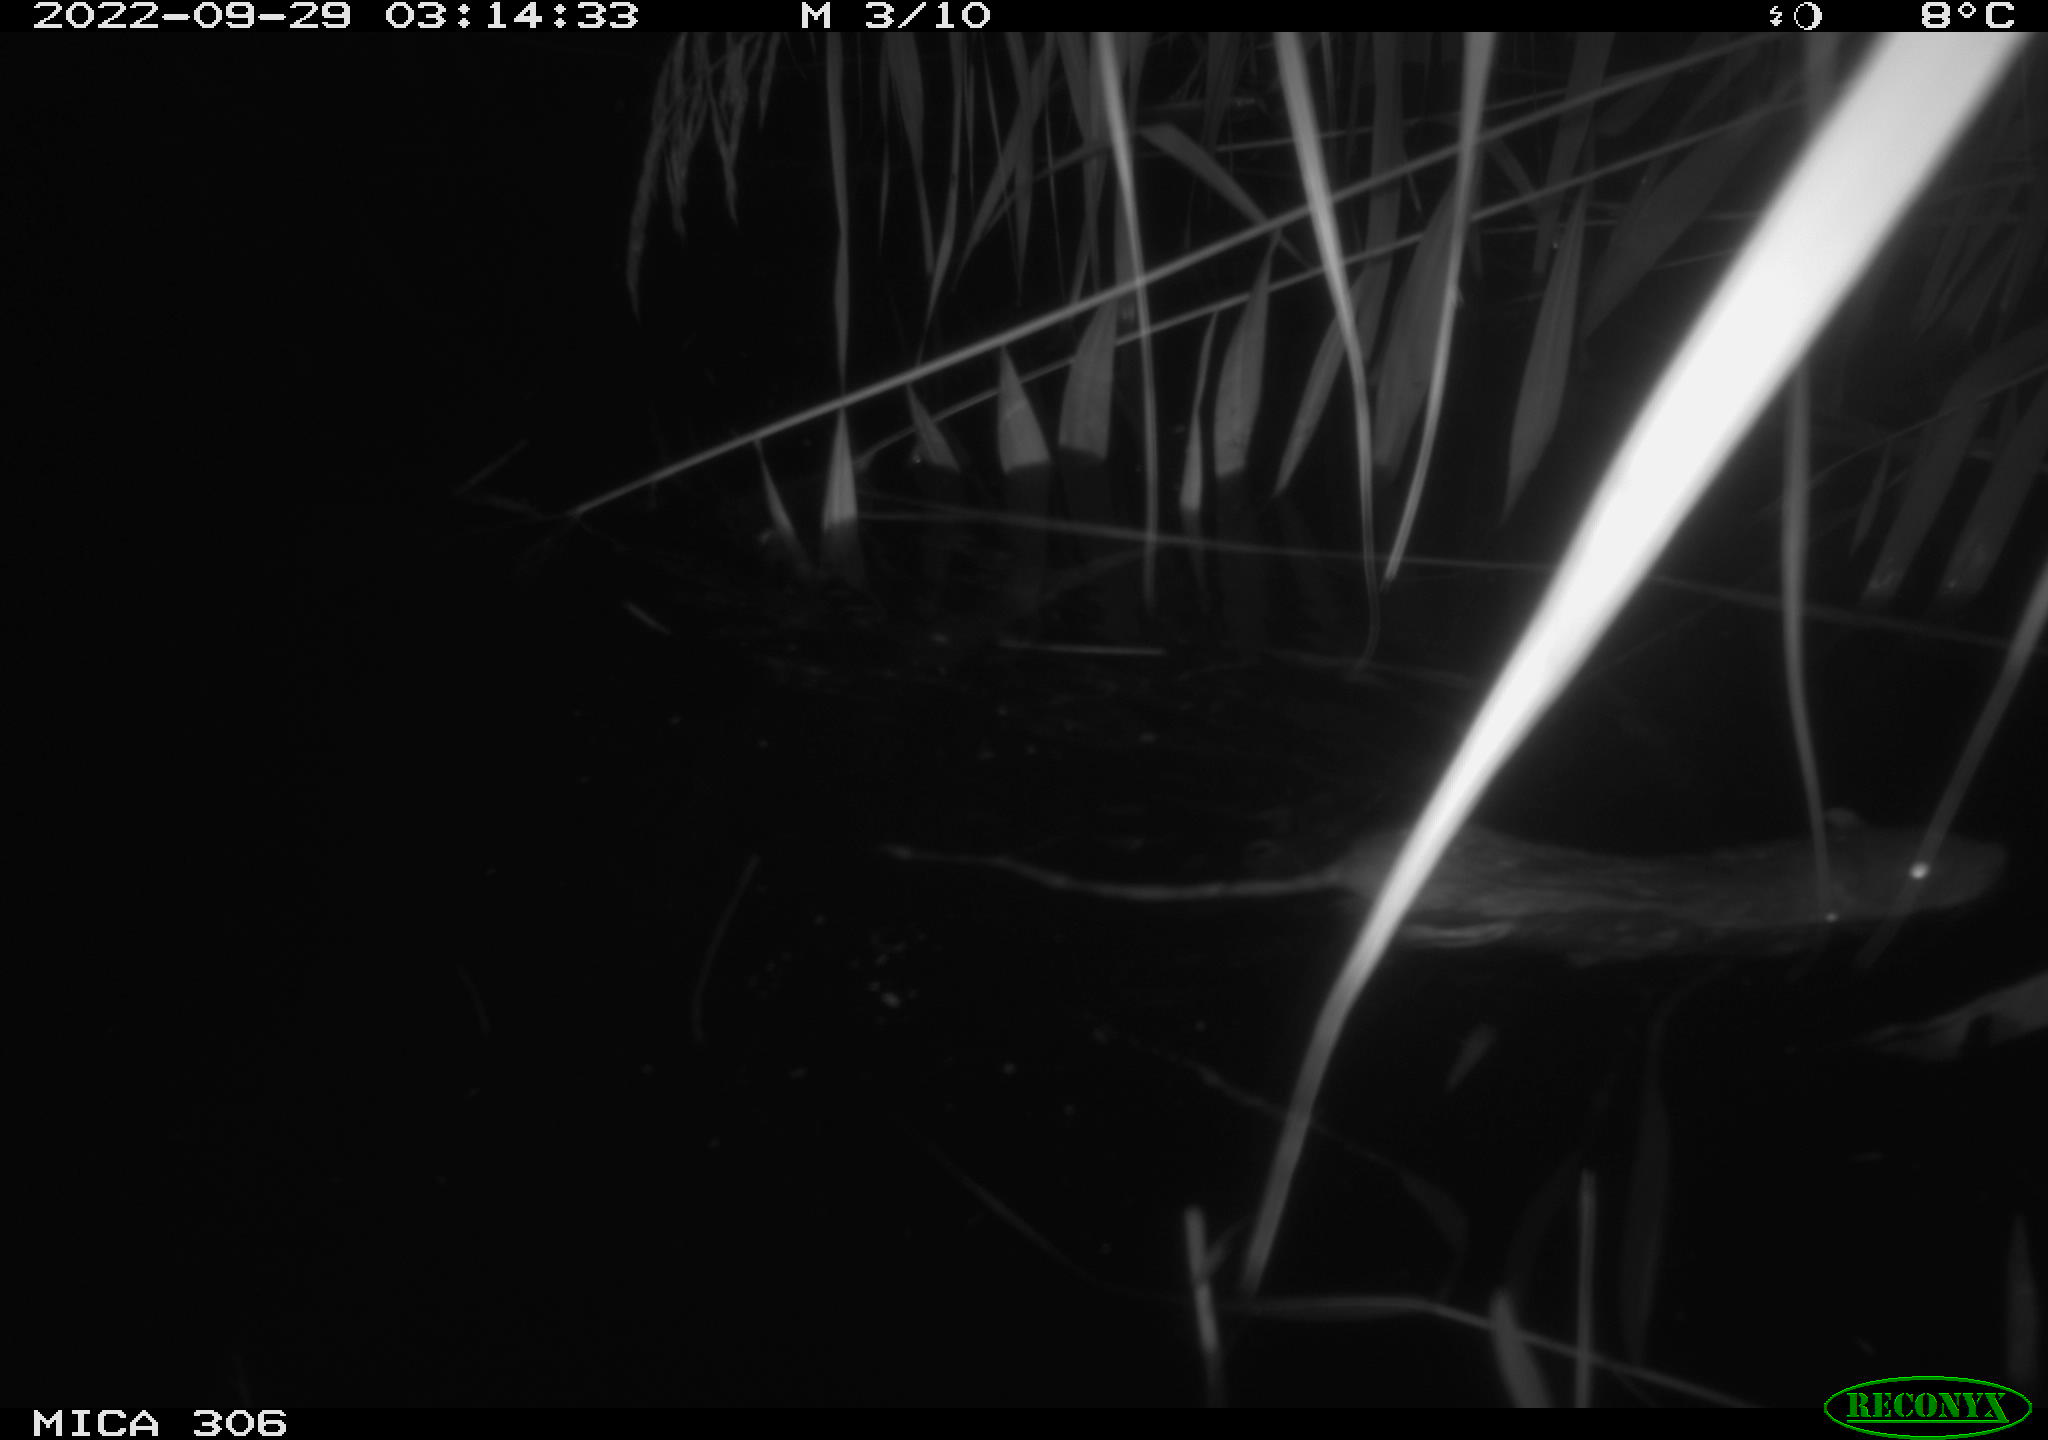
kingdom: Animalia
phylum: Chordata
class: Mammalia
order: Rodentia
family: Muridae
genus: Rattus
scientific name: Rattus norvegicus
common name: Brown rat
